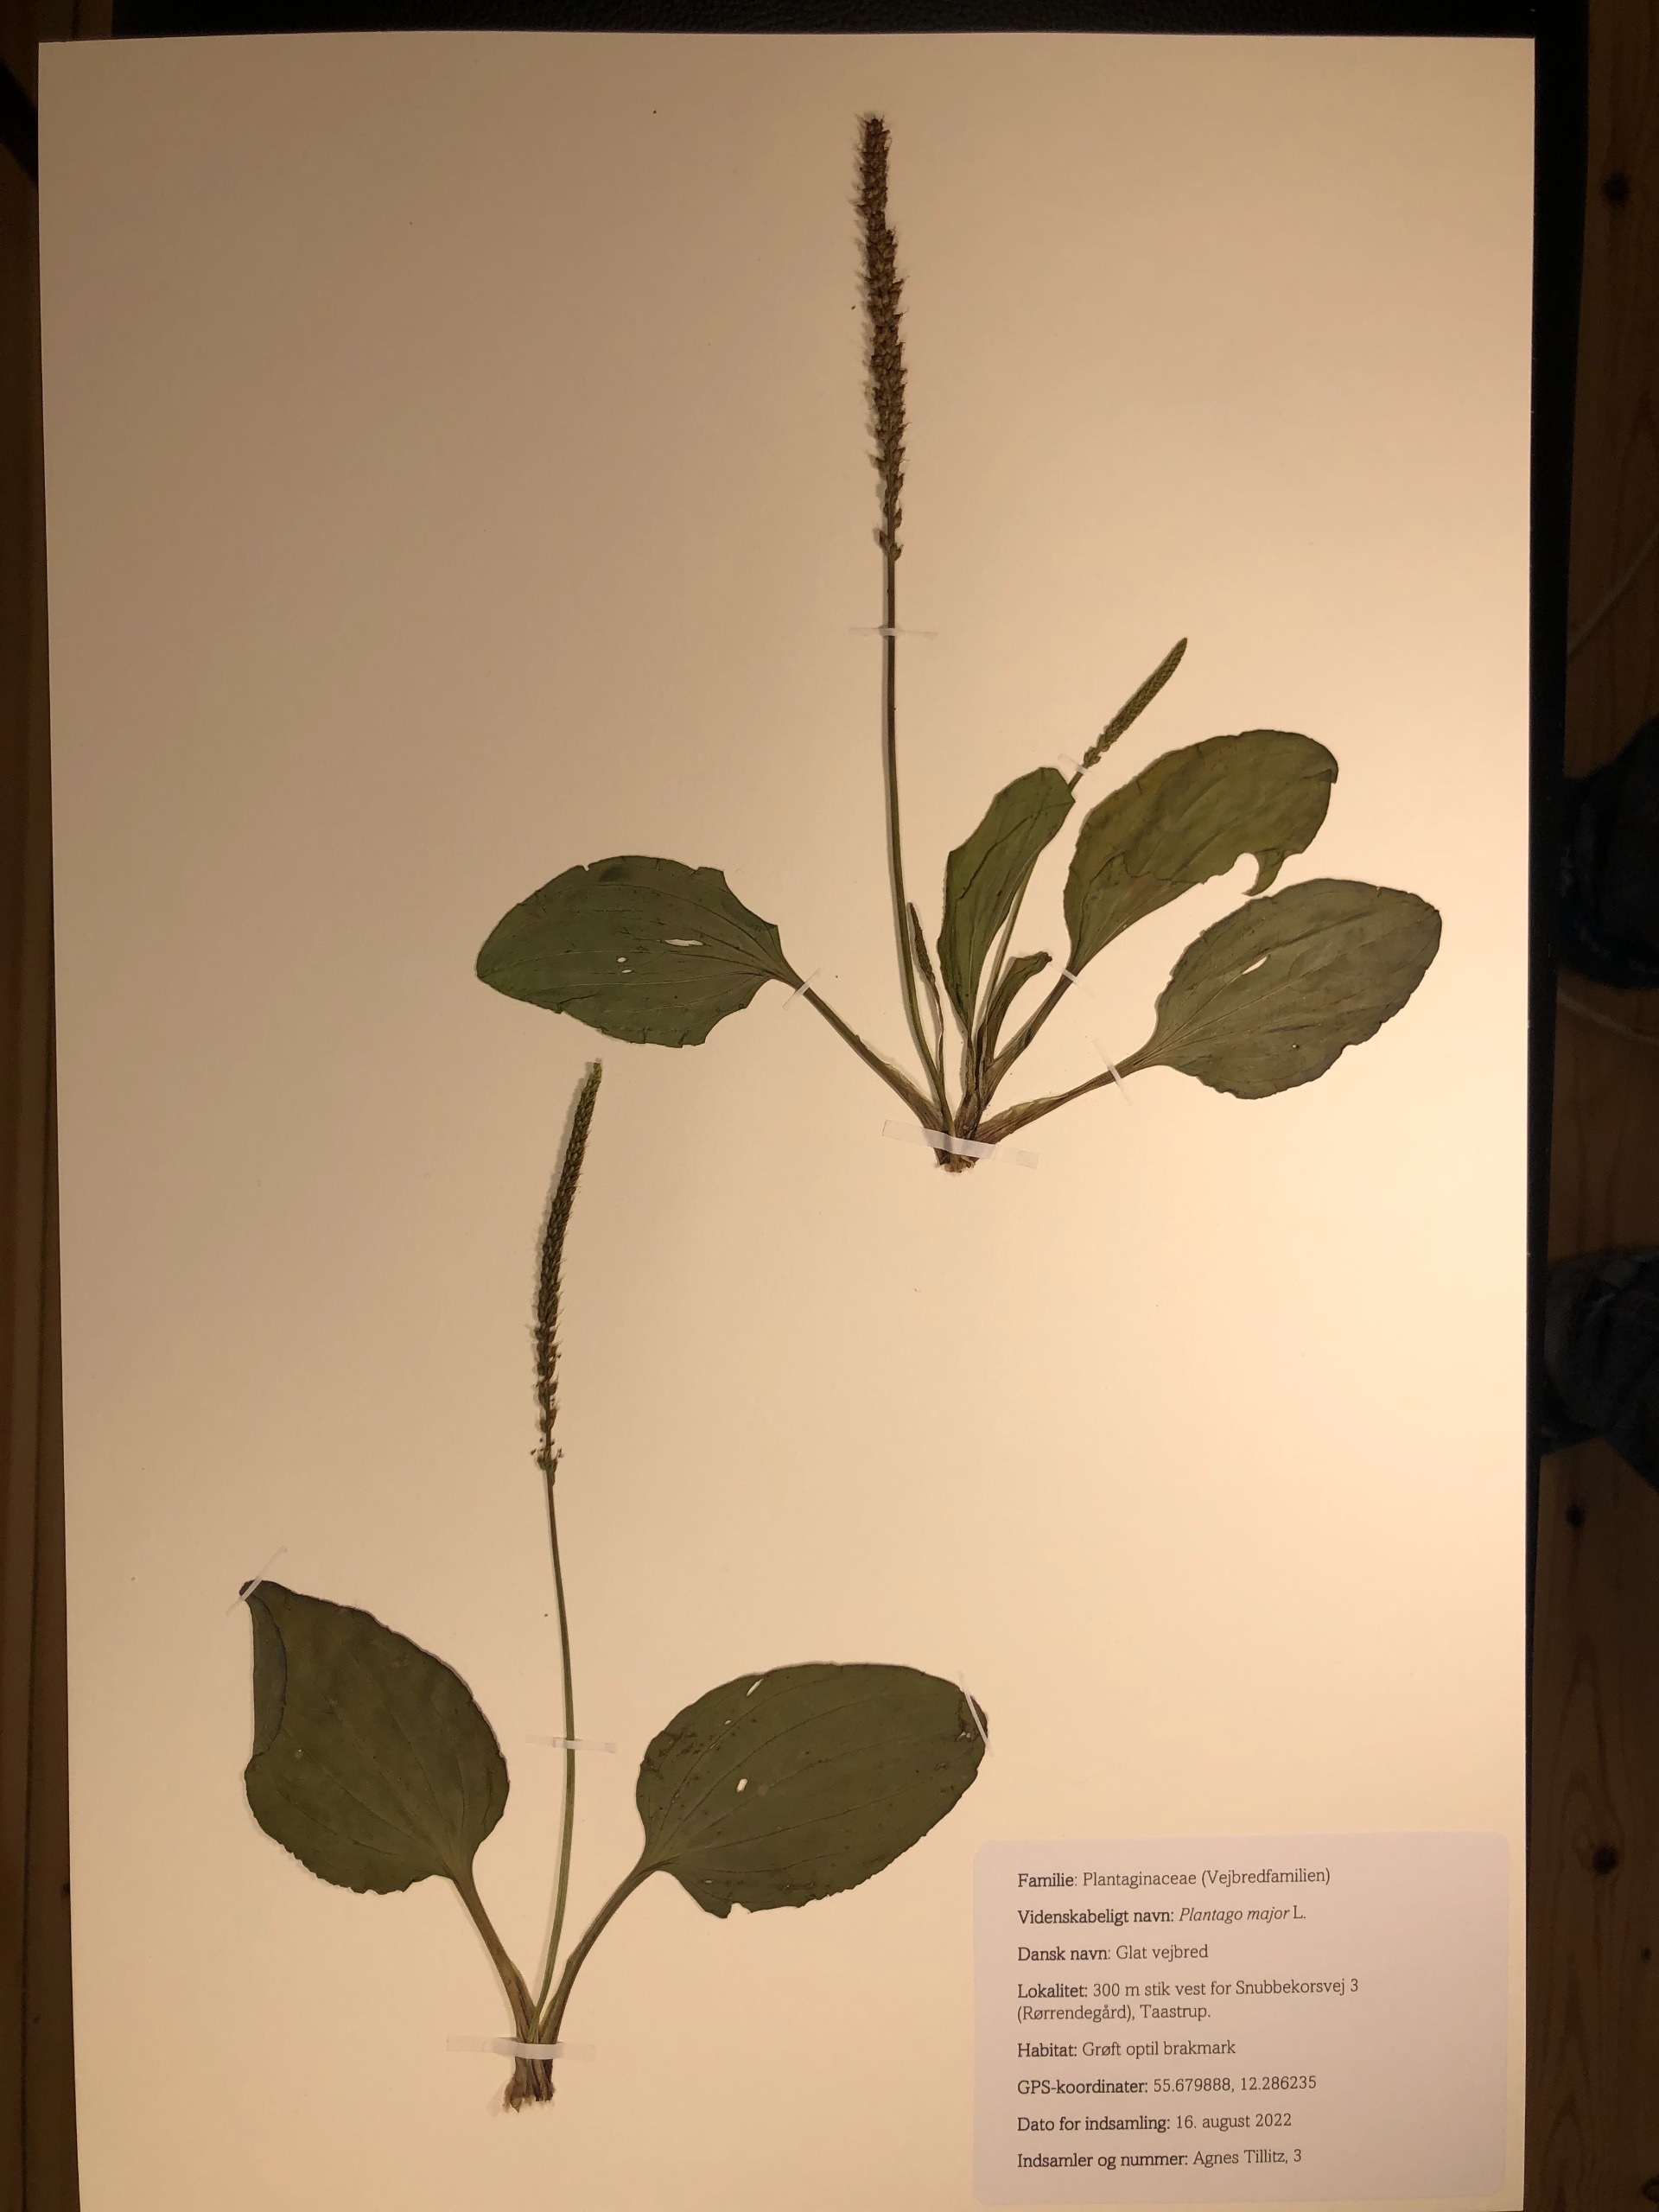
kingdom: Plantae
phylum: Tracheophyta
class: Magnoliopsida
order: Lamiales
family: Plantaginaceae
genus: Plantago
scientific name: Plantago major
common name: Glat vejbred
